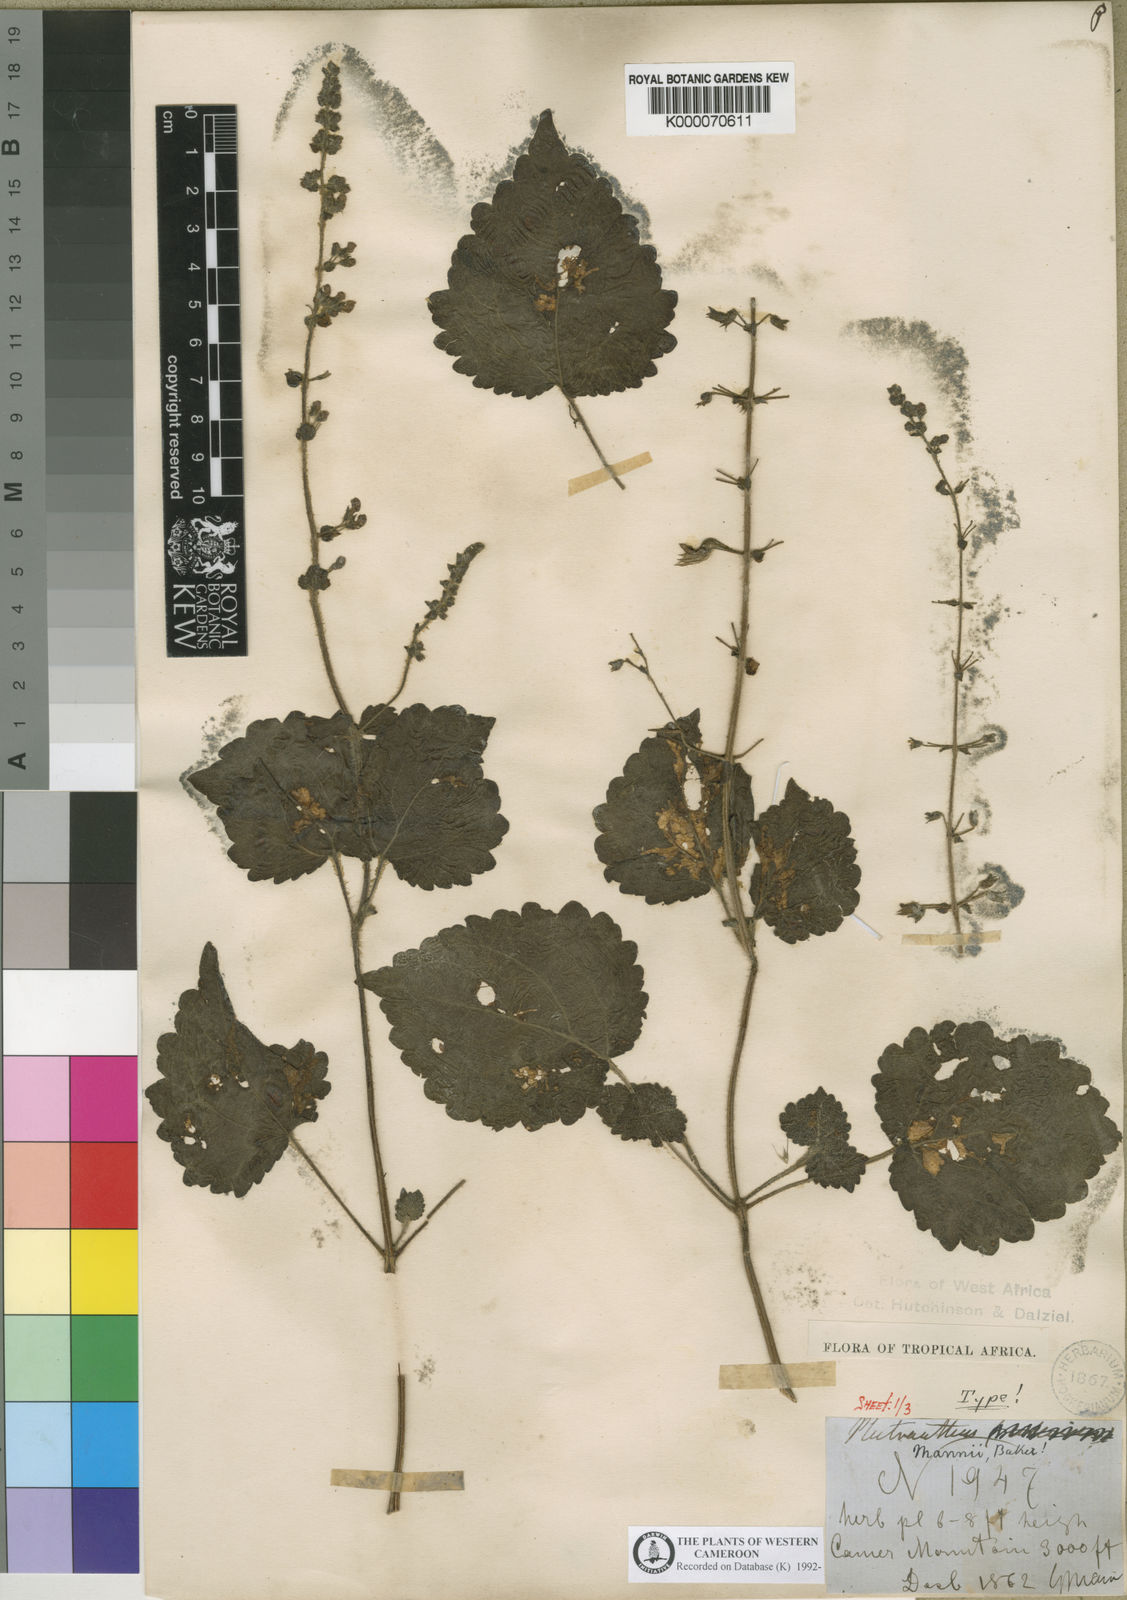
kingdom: Plantae
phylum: Tracheophyta
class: Magnoliopsida
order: Lamiales
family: Lamiaceae
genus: Equilabium
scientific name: Equilabium kamerunense
